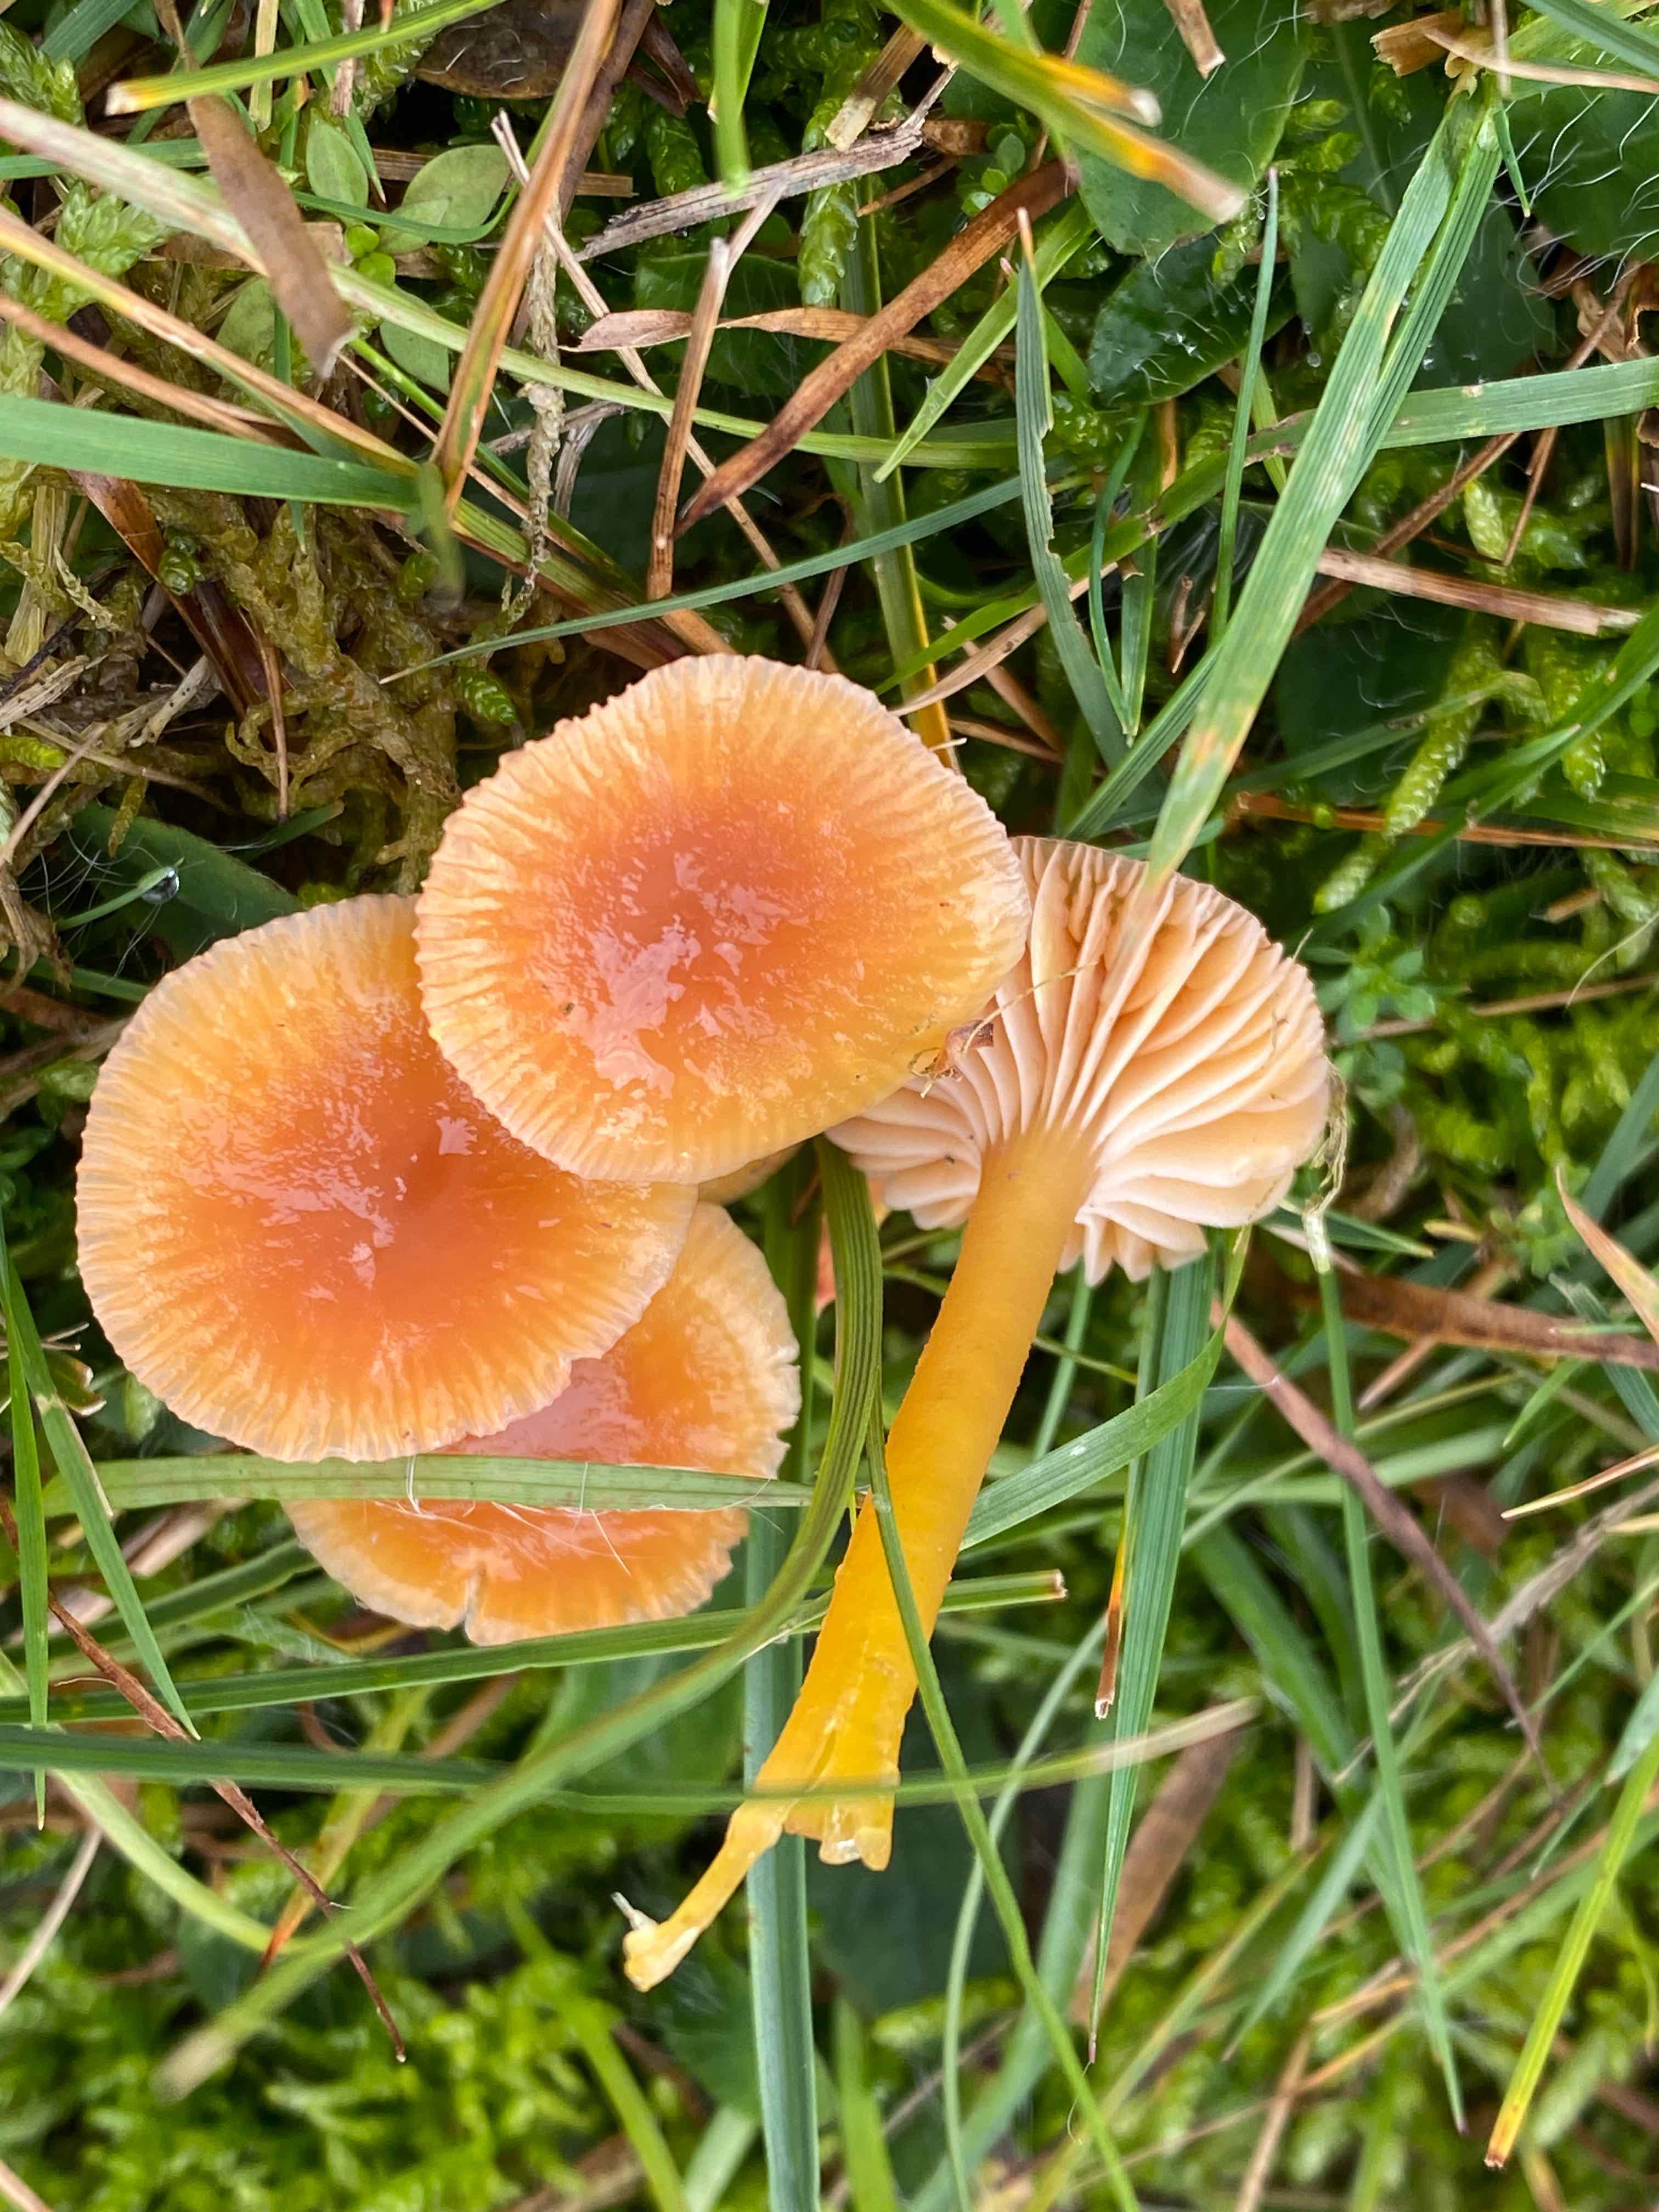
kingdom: Fungi
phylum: Basidiomycota
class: Agaricomycetes
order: Agaricales
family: Hygrophoraceae
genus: Gliophorus
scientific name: Gliophorus laetus
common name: brusk-vokshat
